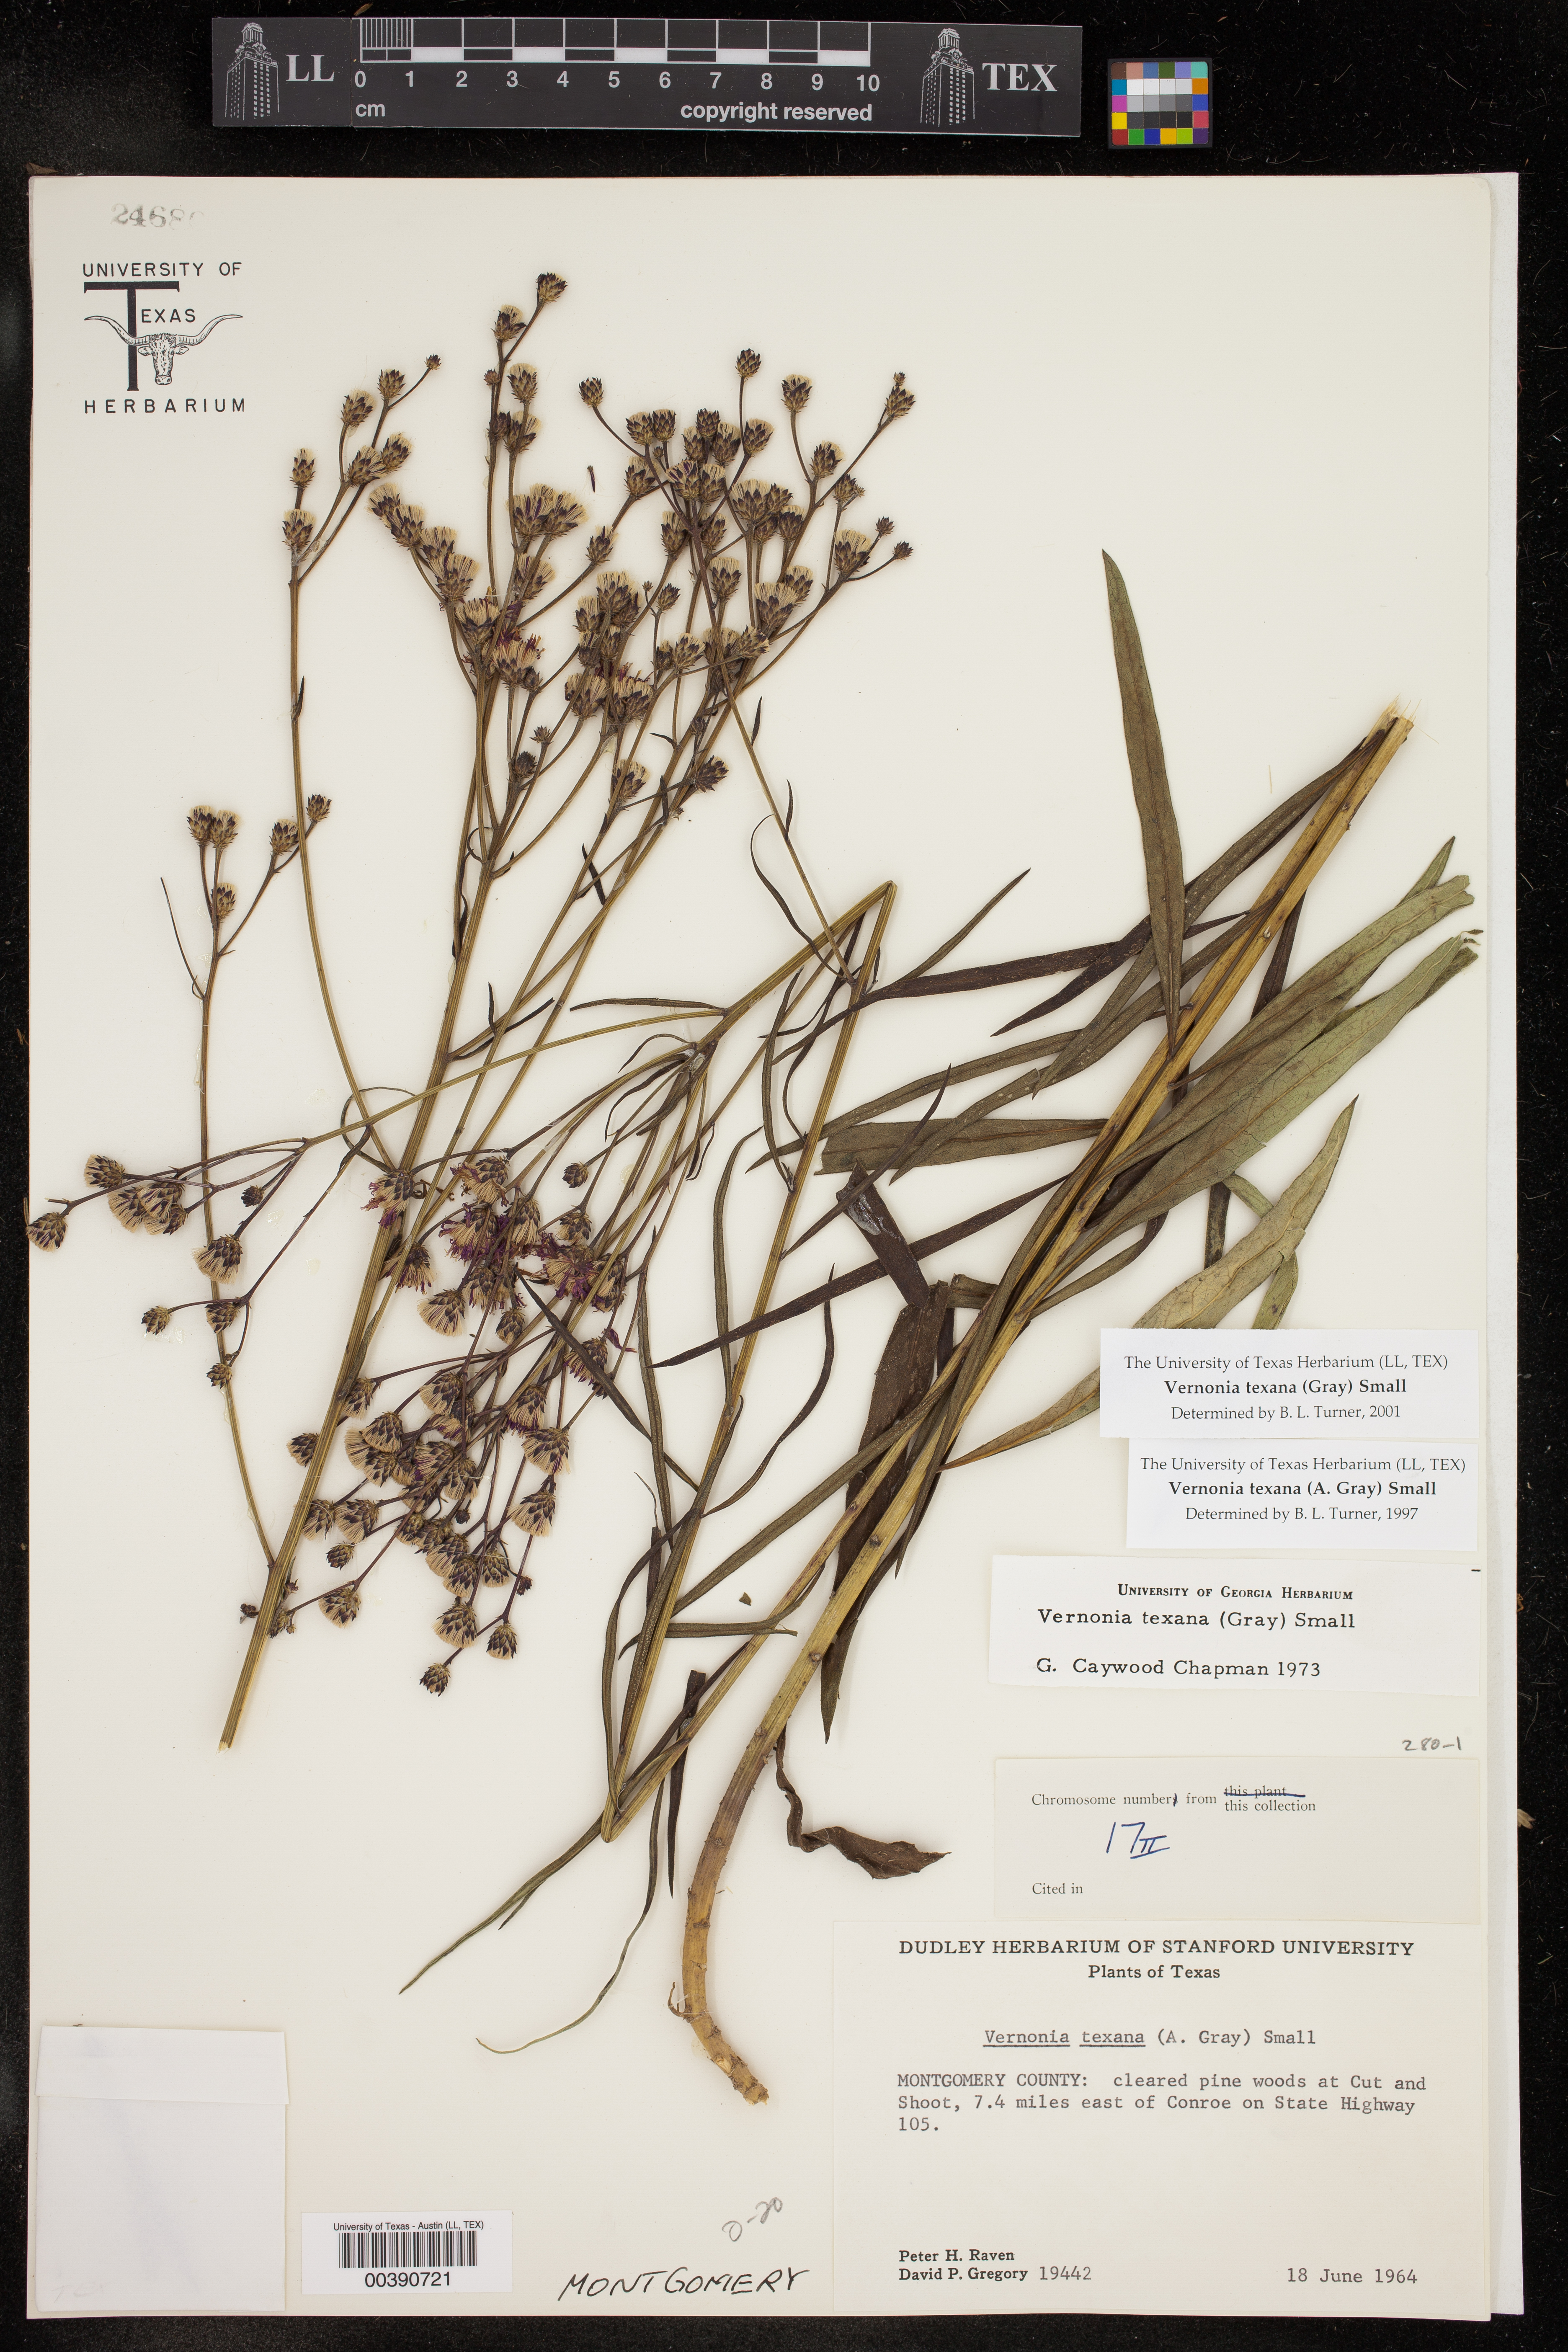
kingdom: Plantae
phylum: Tracheophyta
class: Magnoliopsida
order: Asterales
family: Asteraceae
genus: Vernonia
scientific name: Vernonia texana
